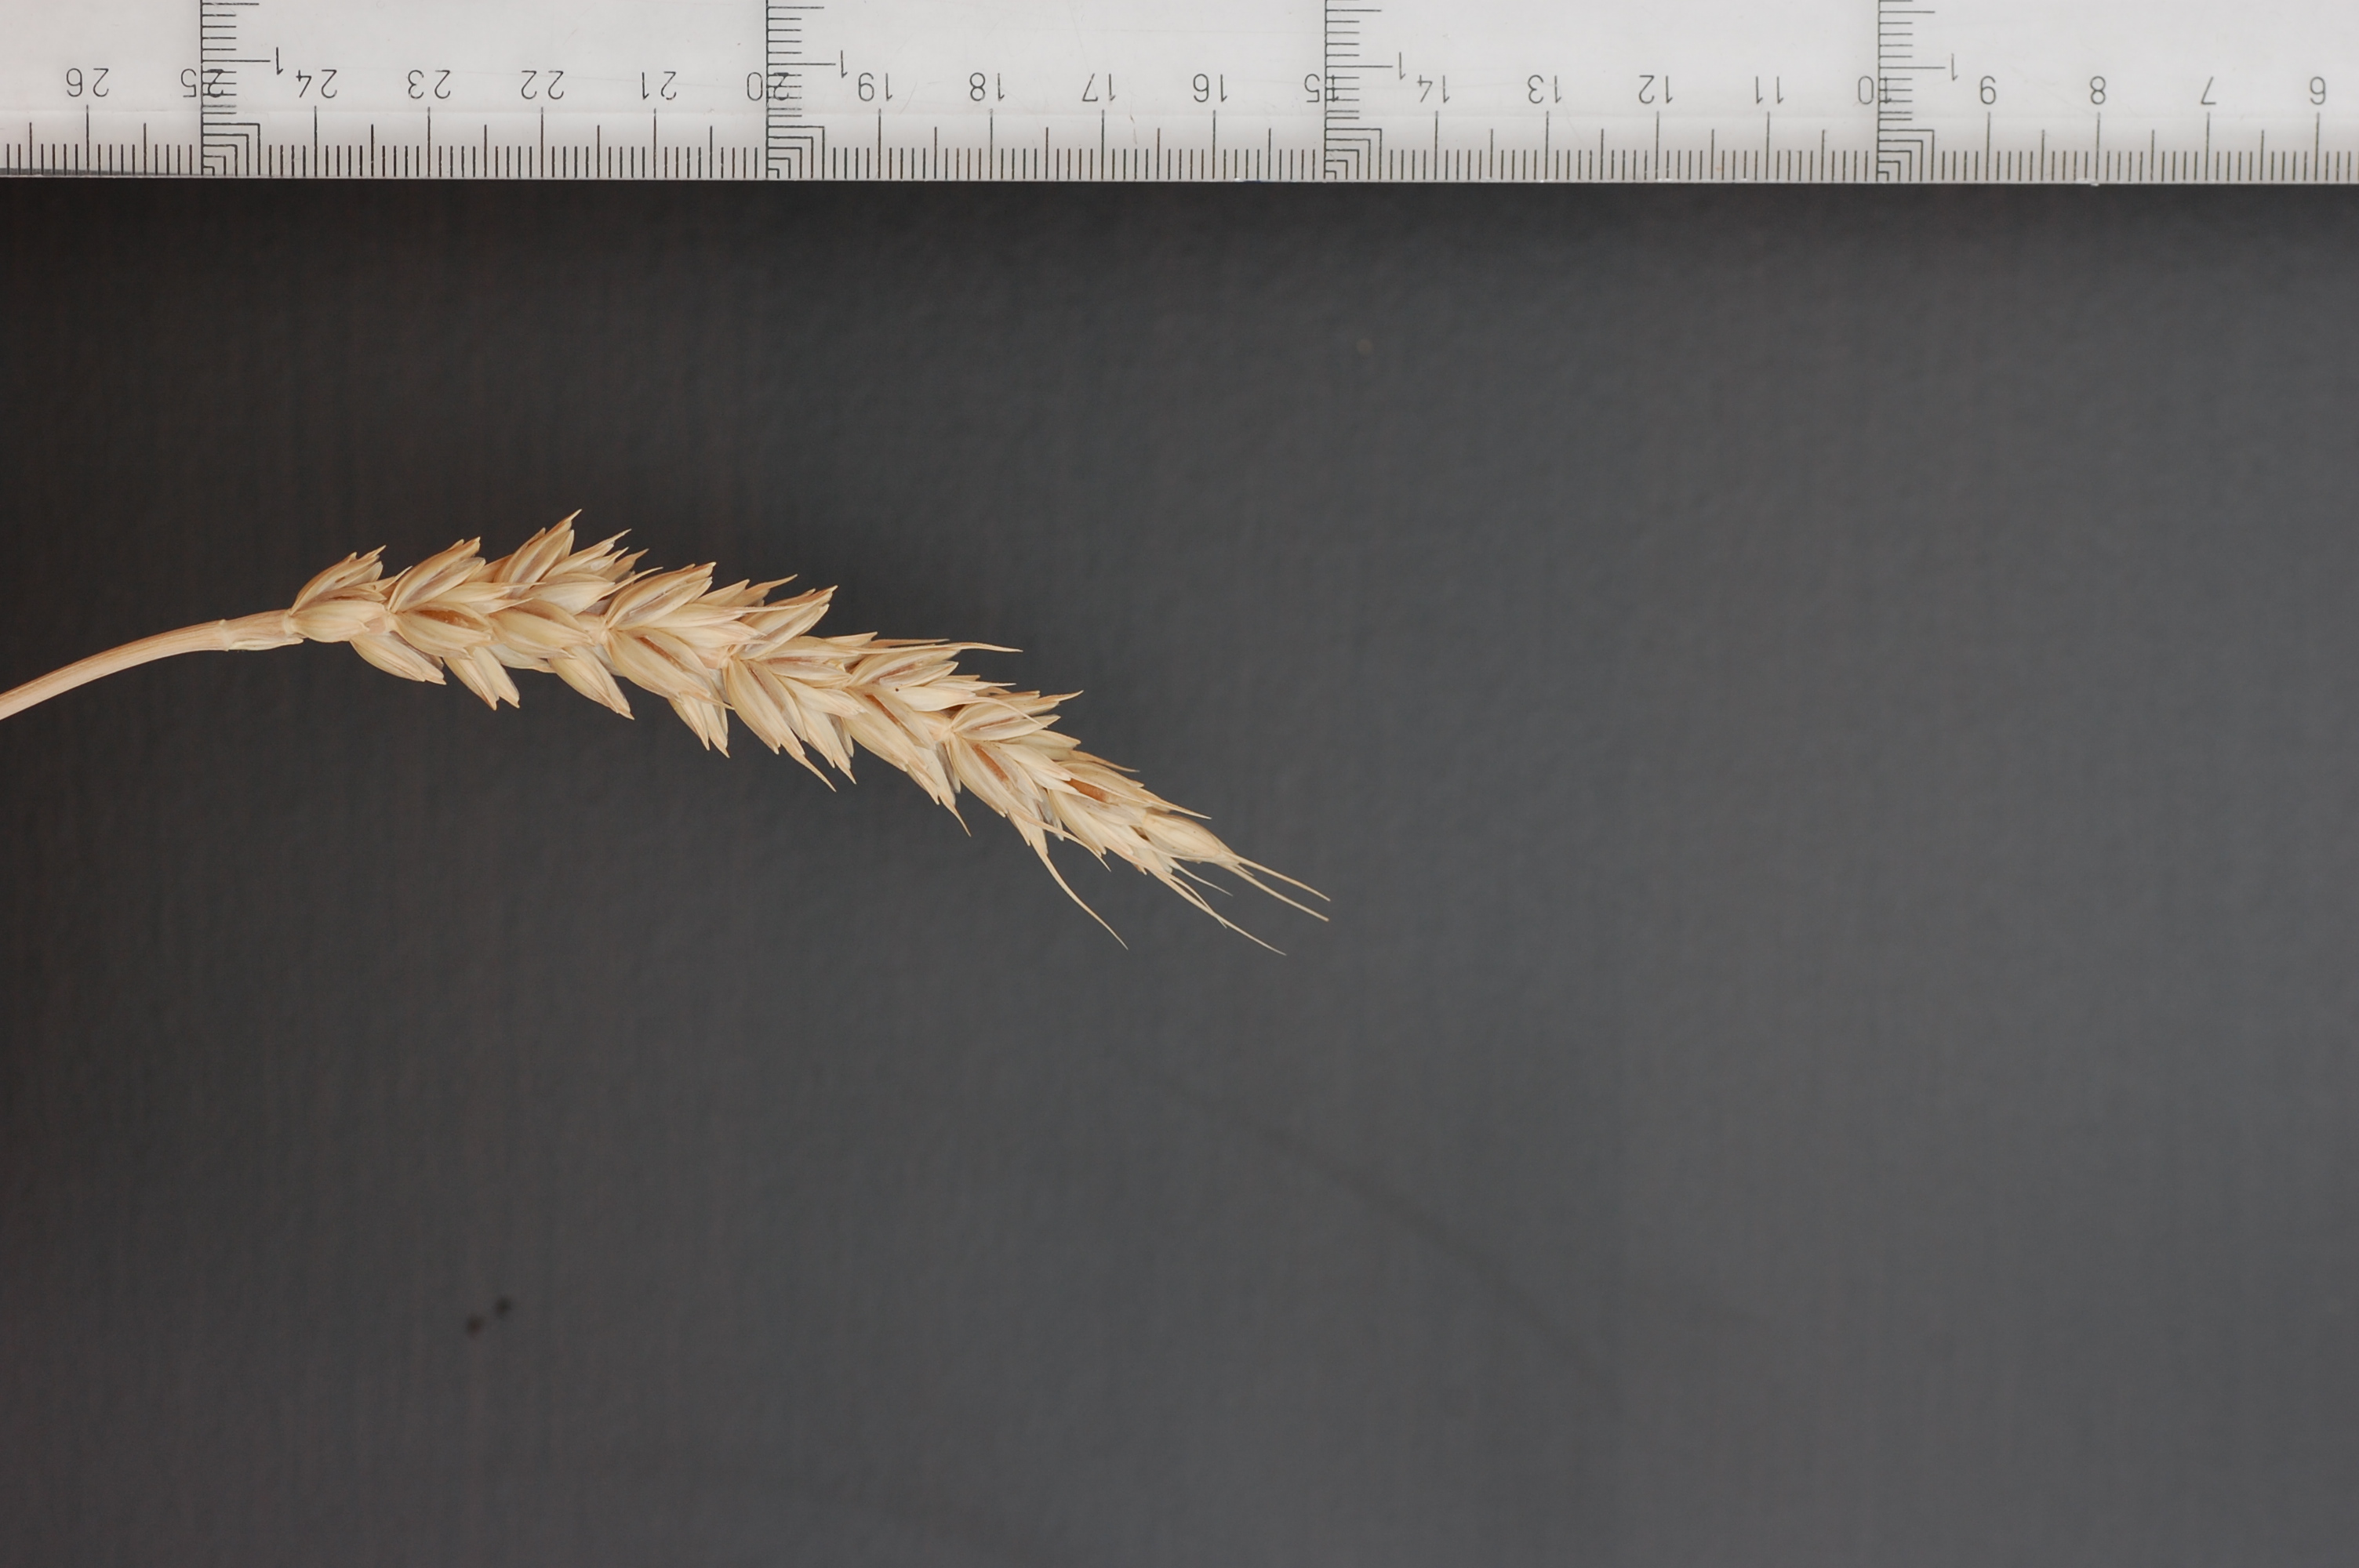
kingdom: Plantae
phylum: Tracheophyta
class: Liliopsida
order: Poales
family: Poaceae
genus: Triticum
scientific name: Triticum aestivum
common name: Common wheat
